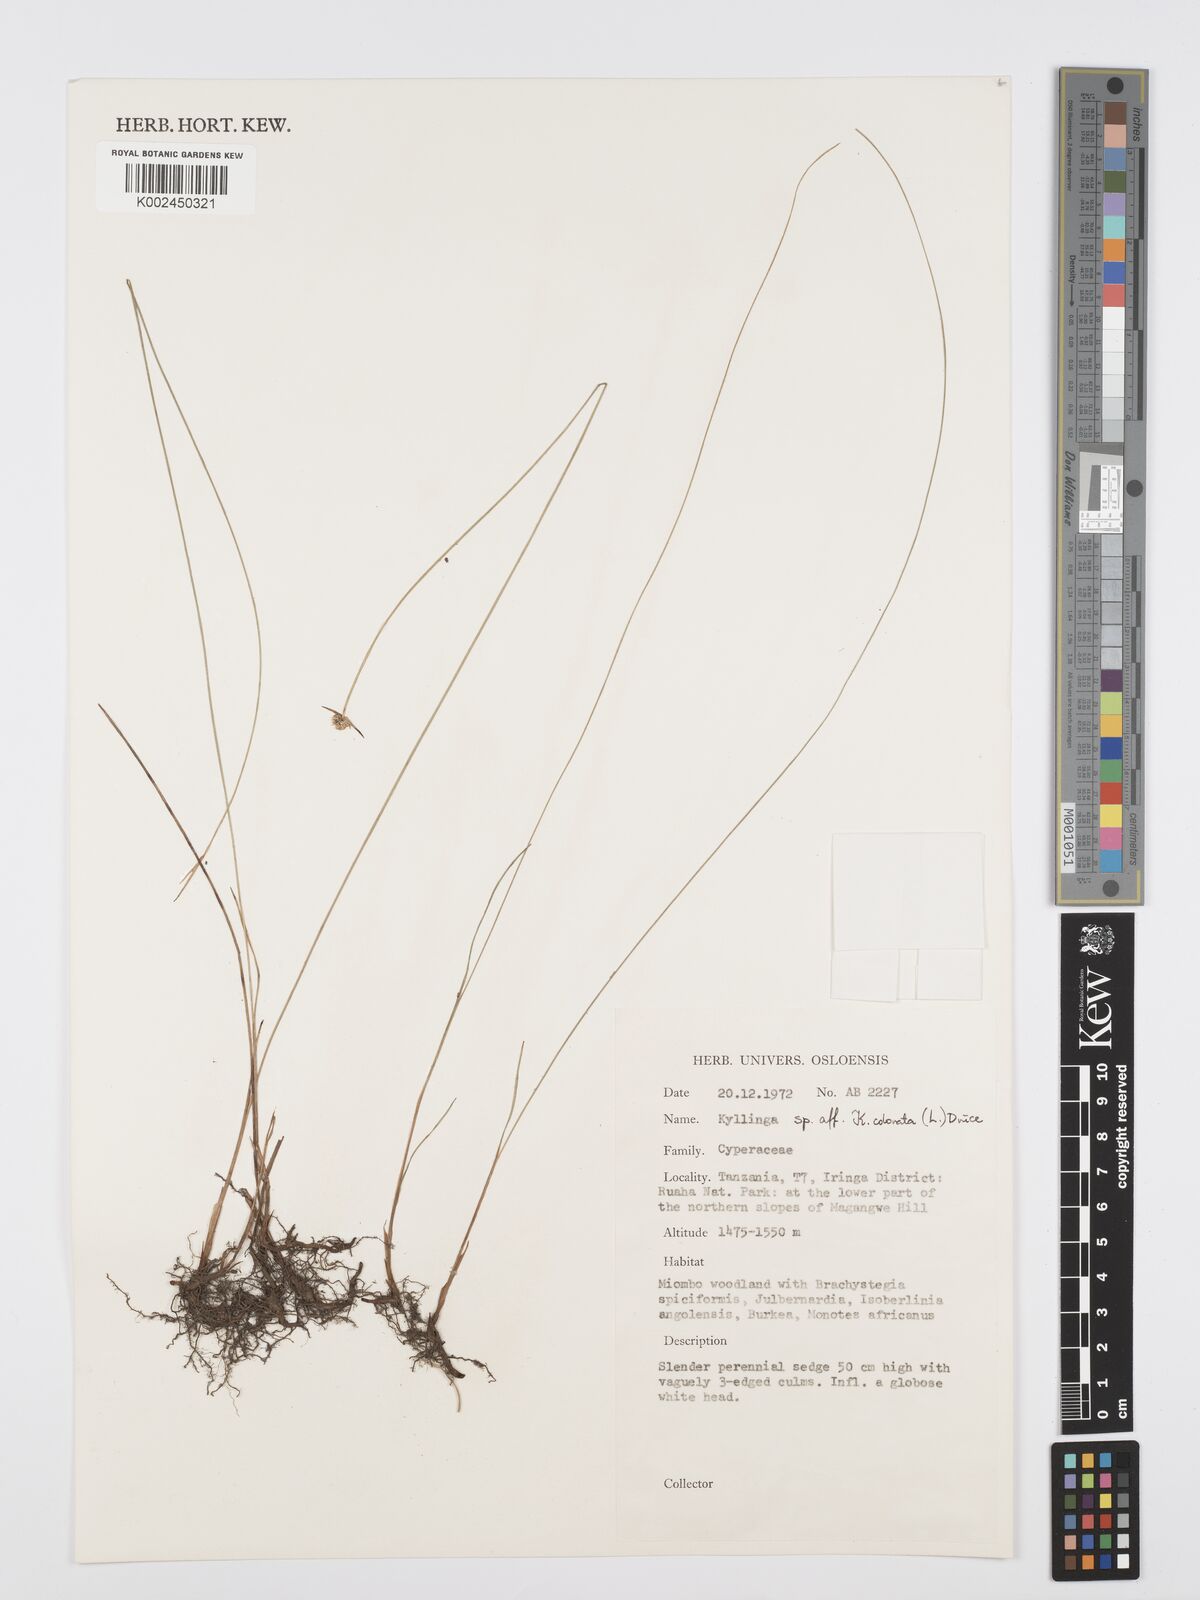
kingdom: Plantae
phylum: Tracheophyta
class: Liliopsida
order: Poales
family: Cyperaceae
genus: Cyperus
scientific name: Cyperus
